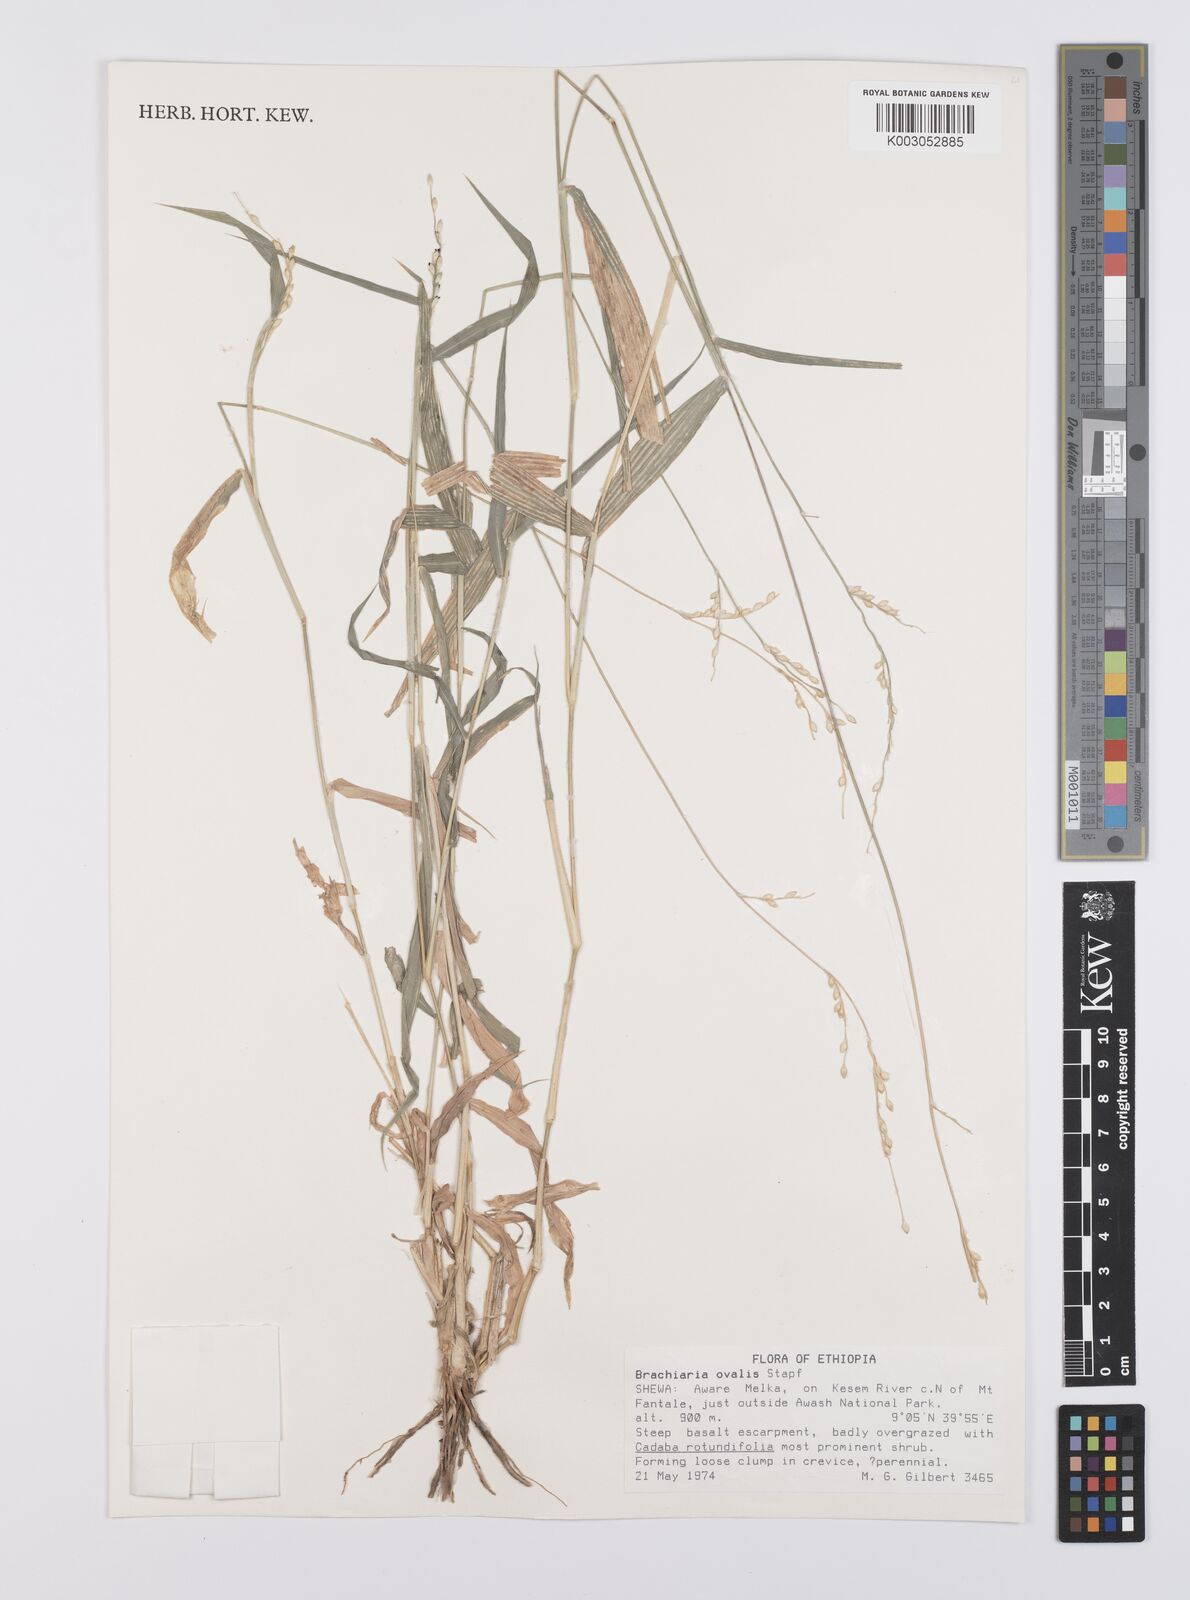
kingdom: Plantae
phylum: Tracheophyta
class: Liliopsida
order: Poales
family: Poaceae
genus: Urochloa
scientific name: Urochloa ovalis
